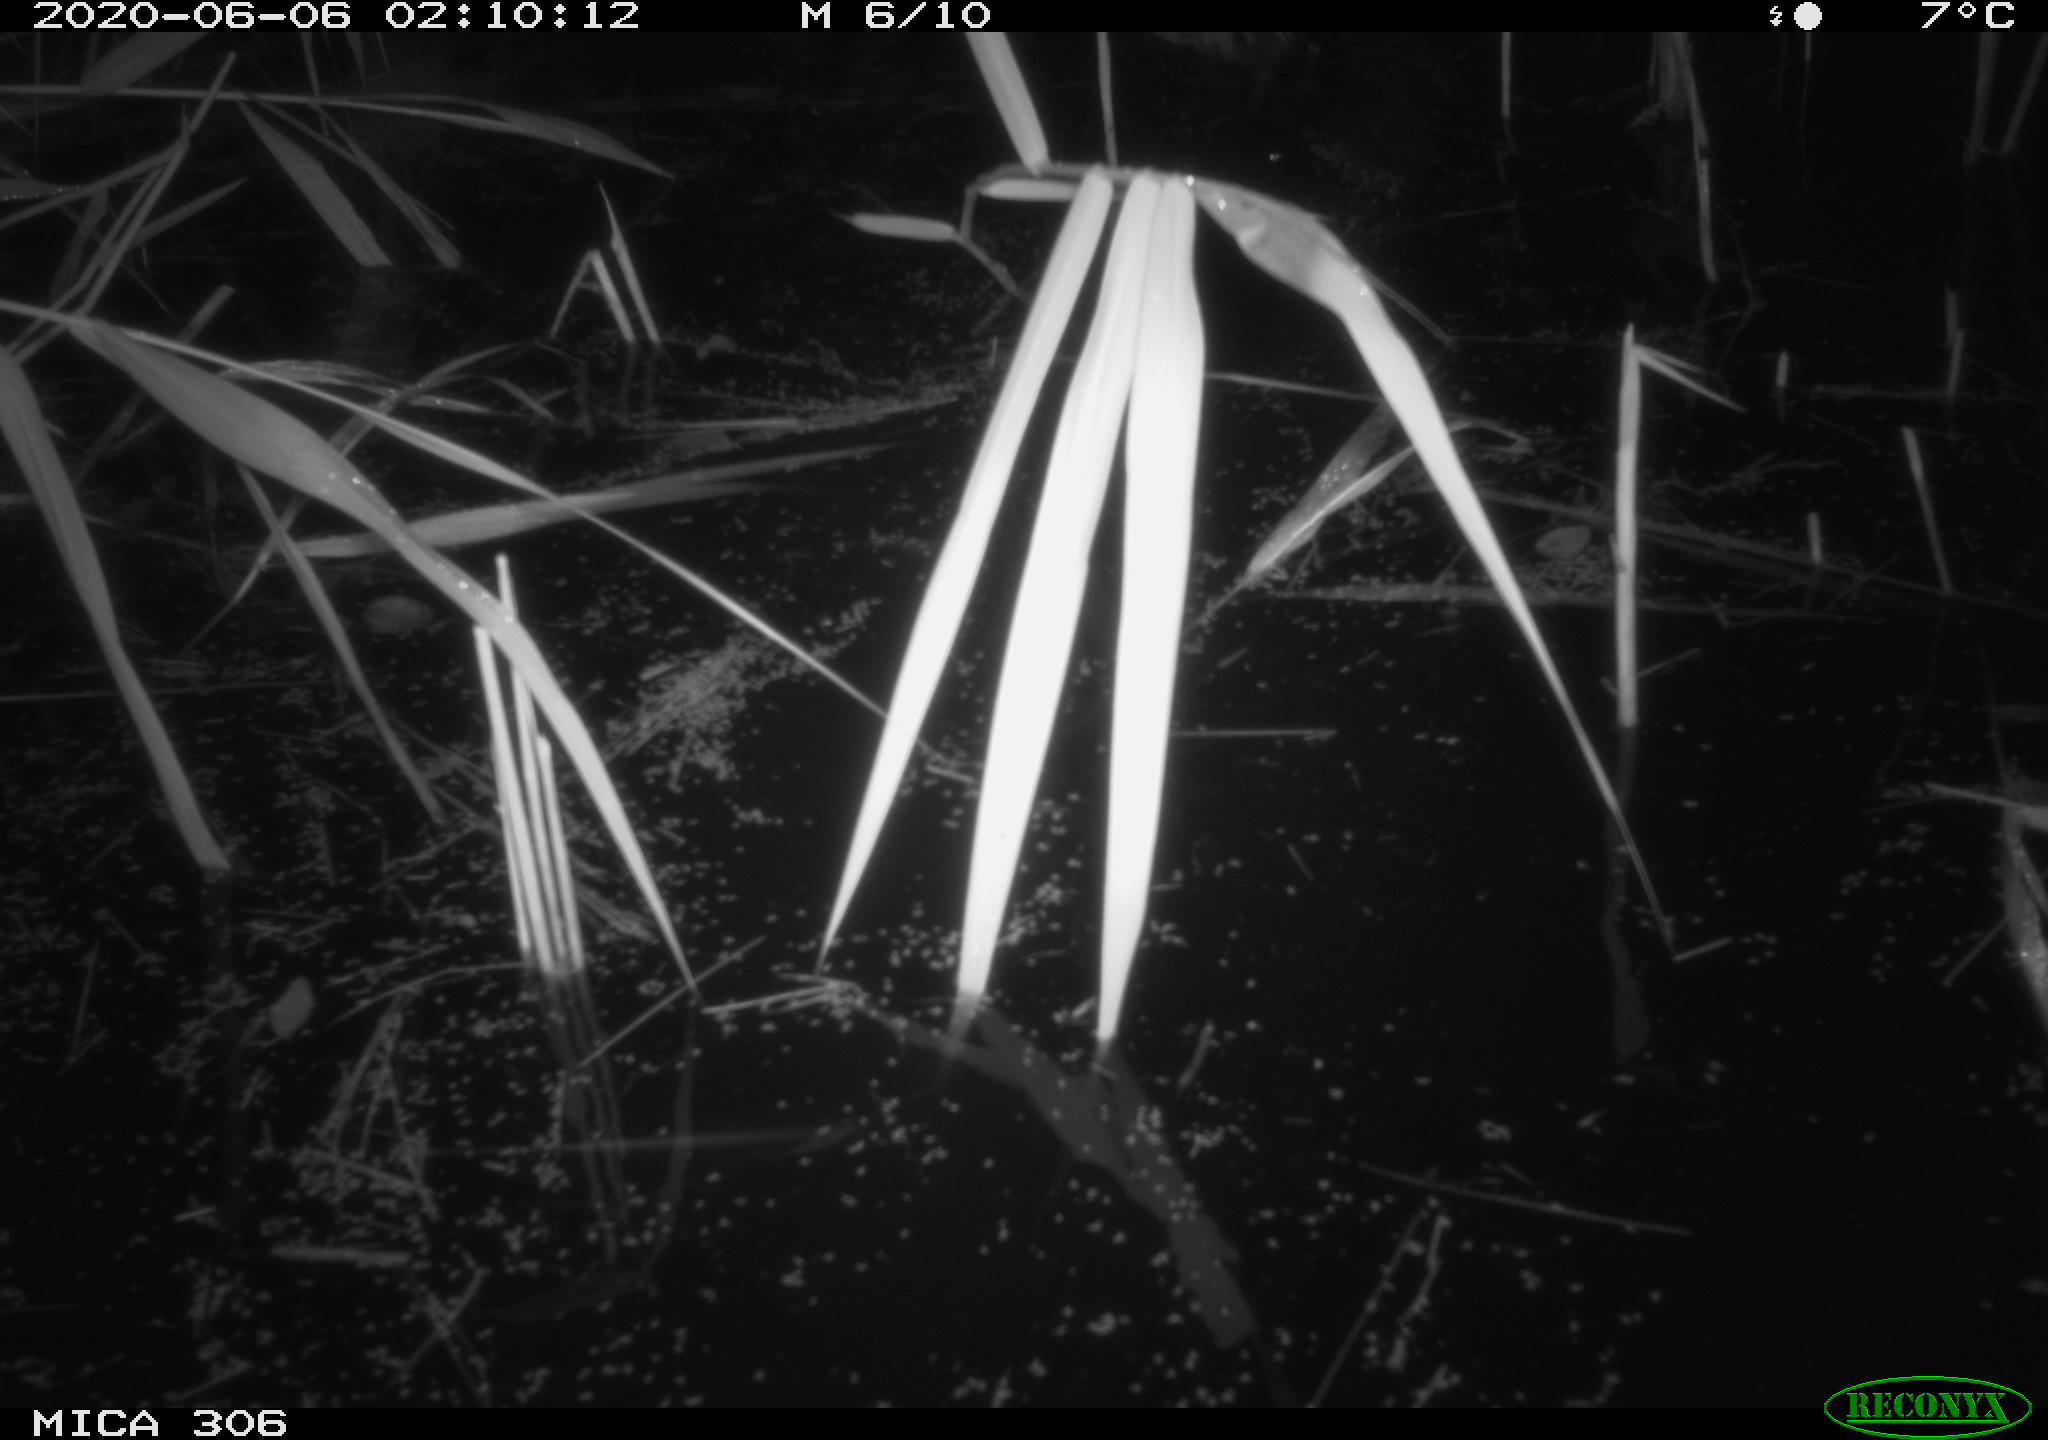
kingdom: Animalia
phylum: Chordata
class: Mammalia
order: Rodentia
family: Cricetidae
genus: Ondatra
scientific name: Ondatra zibethicus
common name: Muskrat
